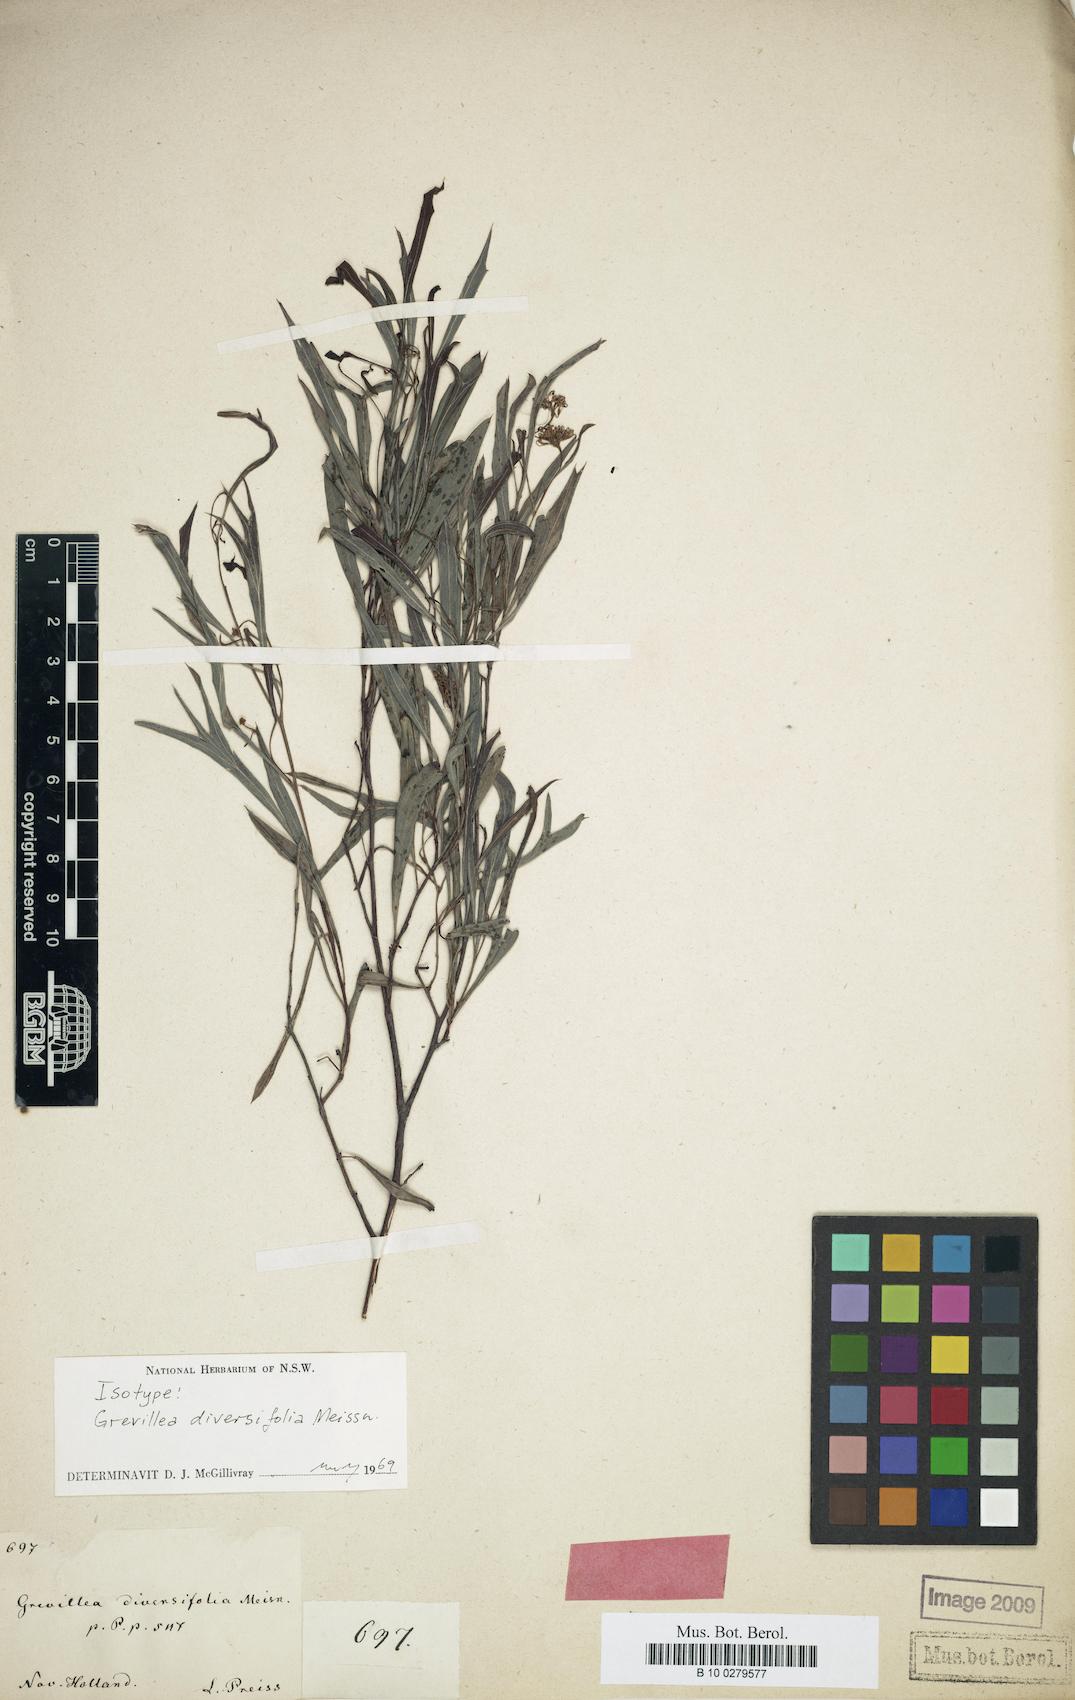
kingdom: Plantae
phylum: Tracheophyta
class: Magnoliopsida
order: Proteales
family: Proteaceae
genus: Grevillea
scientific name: Grevillea diversifolia
